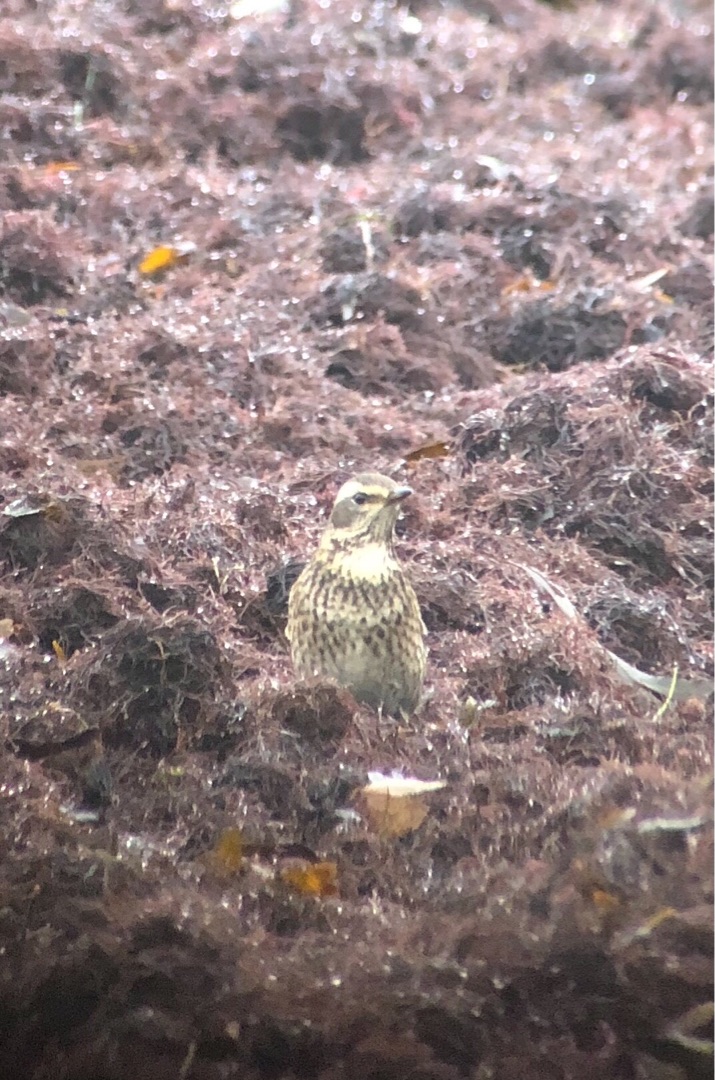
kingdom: Animalia
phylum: Chordata
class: Aves
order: Passeriformes
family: Turdidae
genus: Turdus
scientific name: Turdus eunomus
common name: Brundrossel
